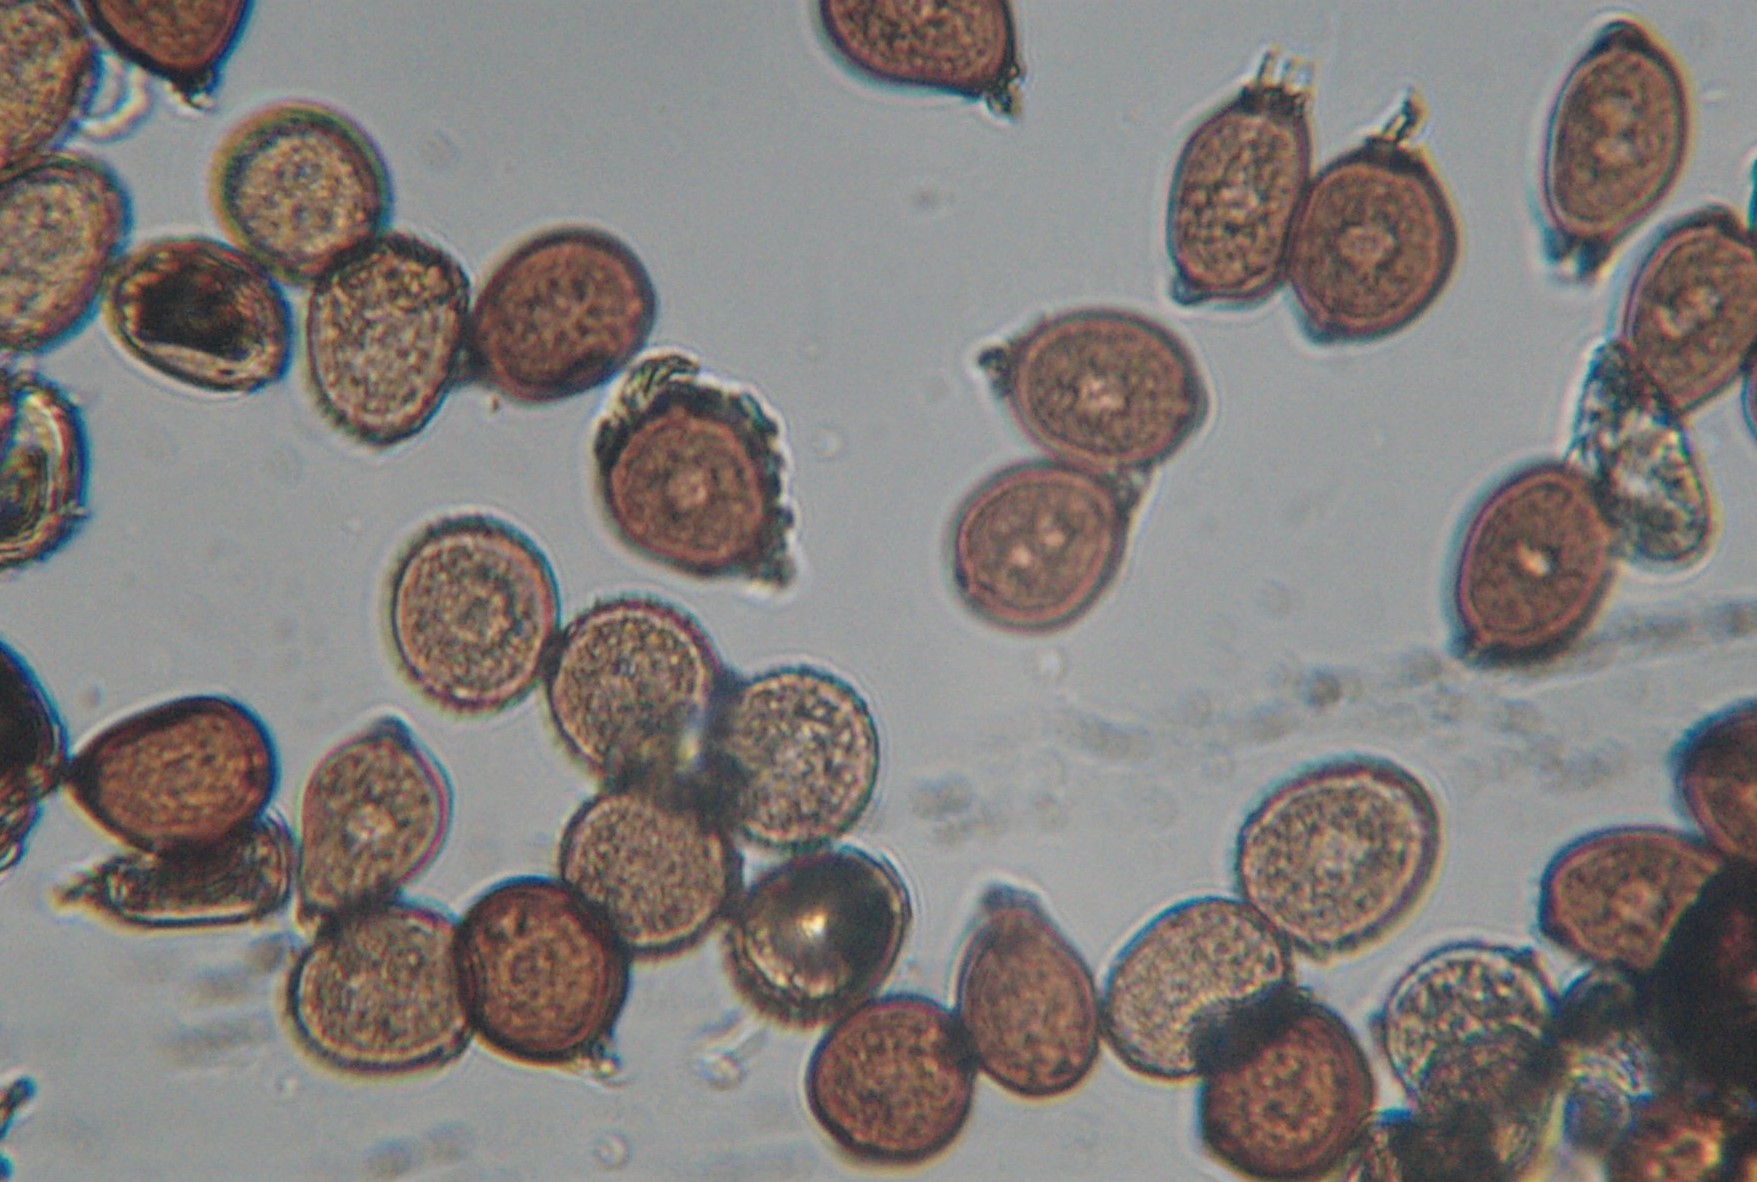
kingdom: Fungi
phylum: Basidiomycota
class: Pucciniomycetes
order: Pucciniales
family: Pucciniaceae
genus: Uromyces
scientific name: Uromyces rumicis
